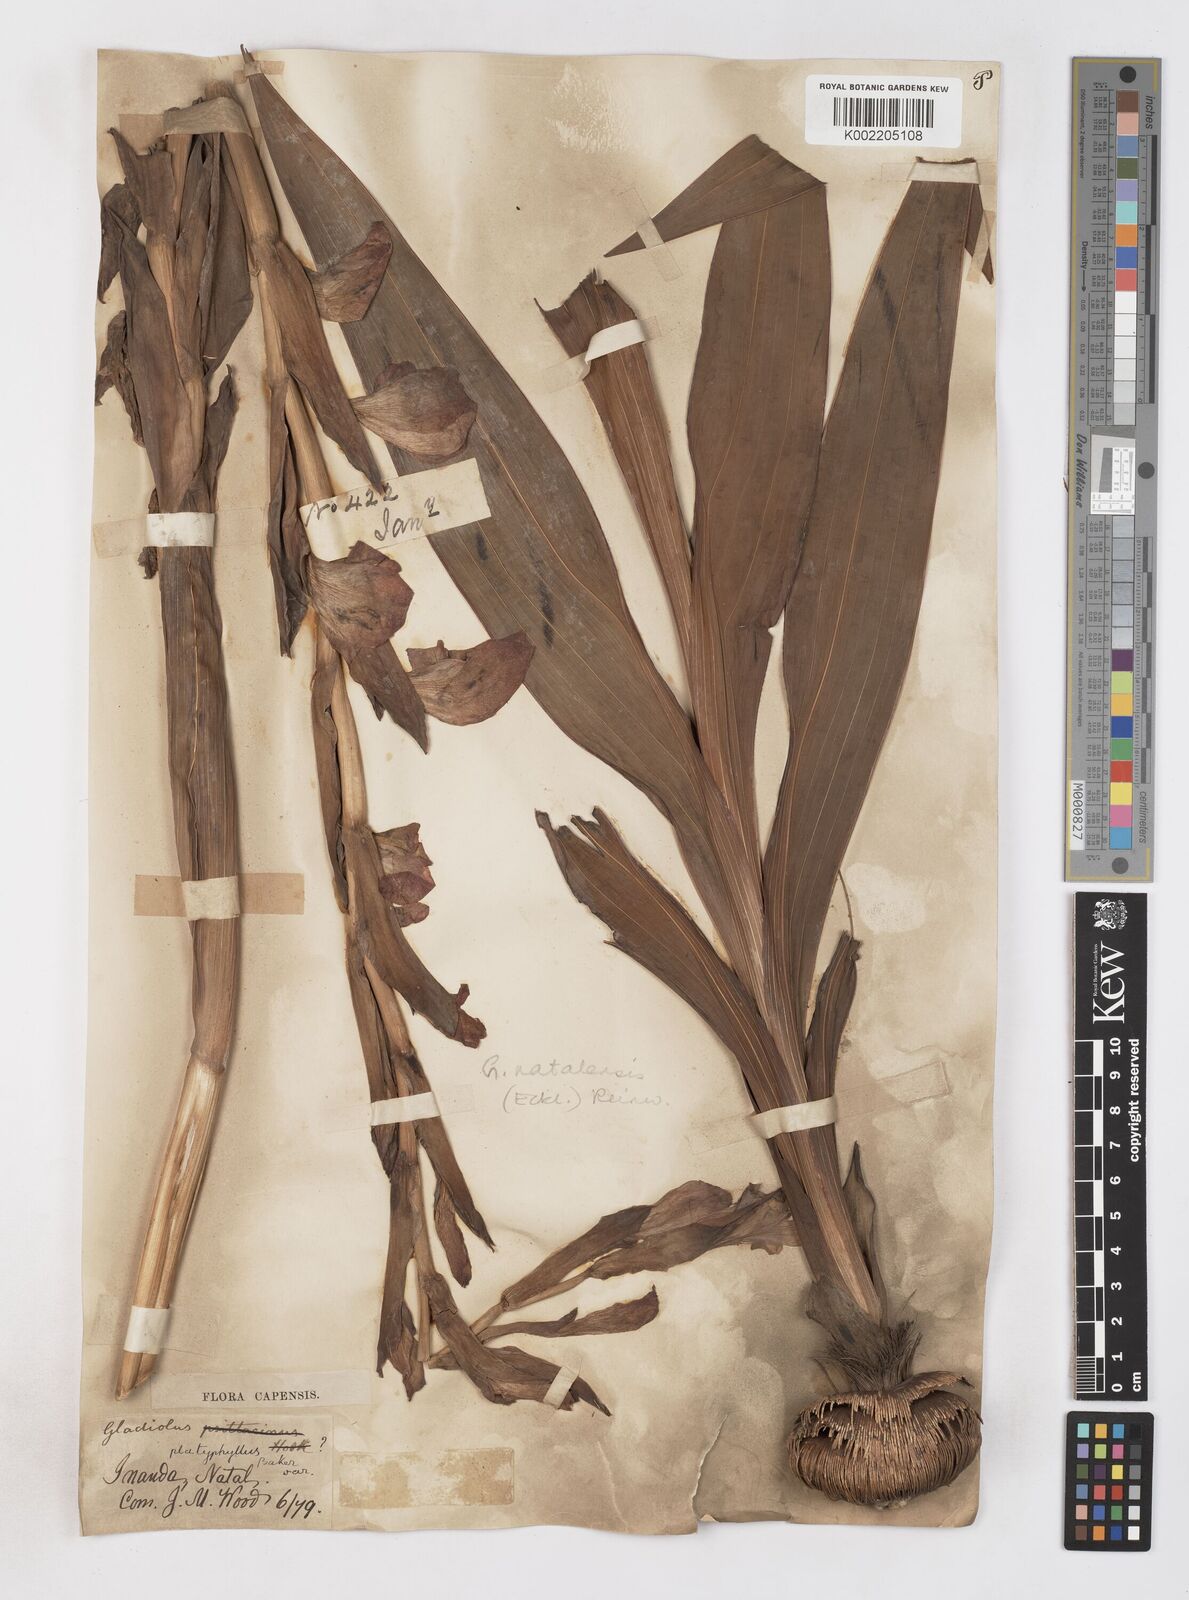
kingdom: Plantae
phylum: Tracheophyta
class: Liliopsida
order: Asparagales
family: Iridaceae
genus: Gladiolus
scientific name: Gladiolus dalenii
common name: Cornflag
